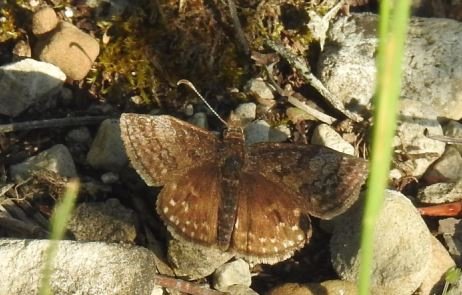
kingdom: Animalia
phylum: Arthropoda
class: Insecta
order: Lepidoptera
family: Hesperiidae
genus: Erynnis
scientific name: Erynnis icelus
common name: Dreamy Duskywing
